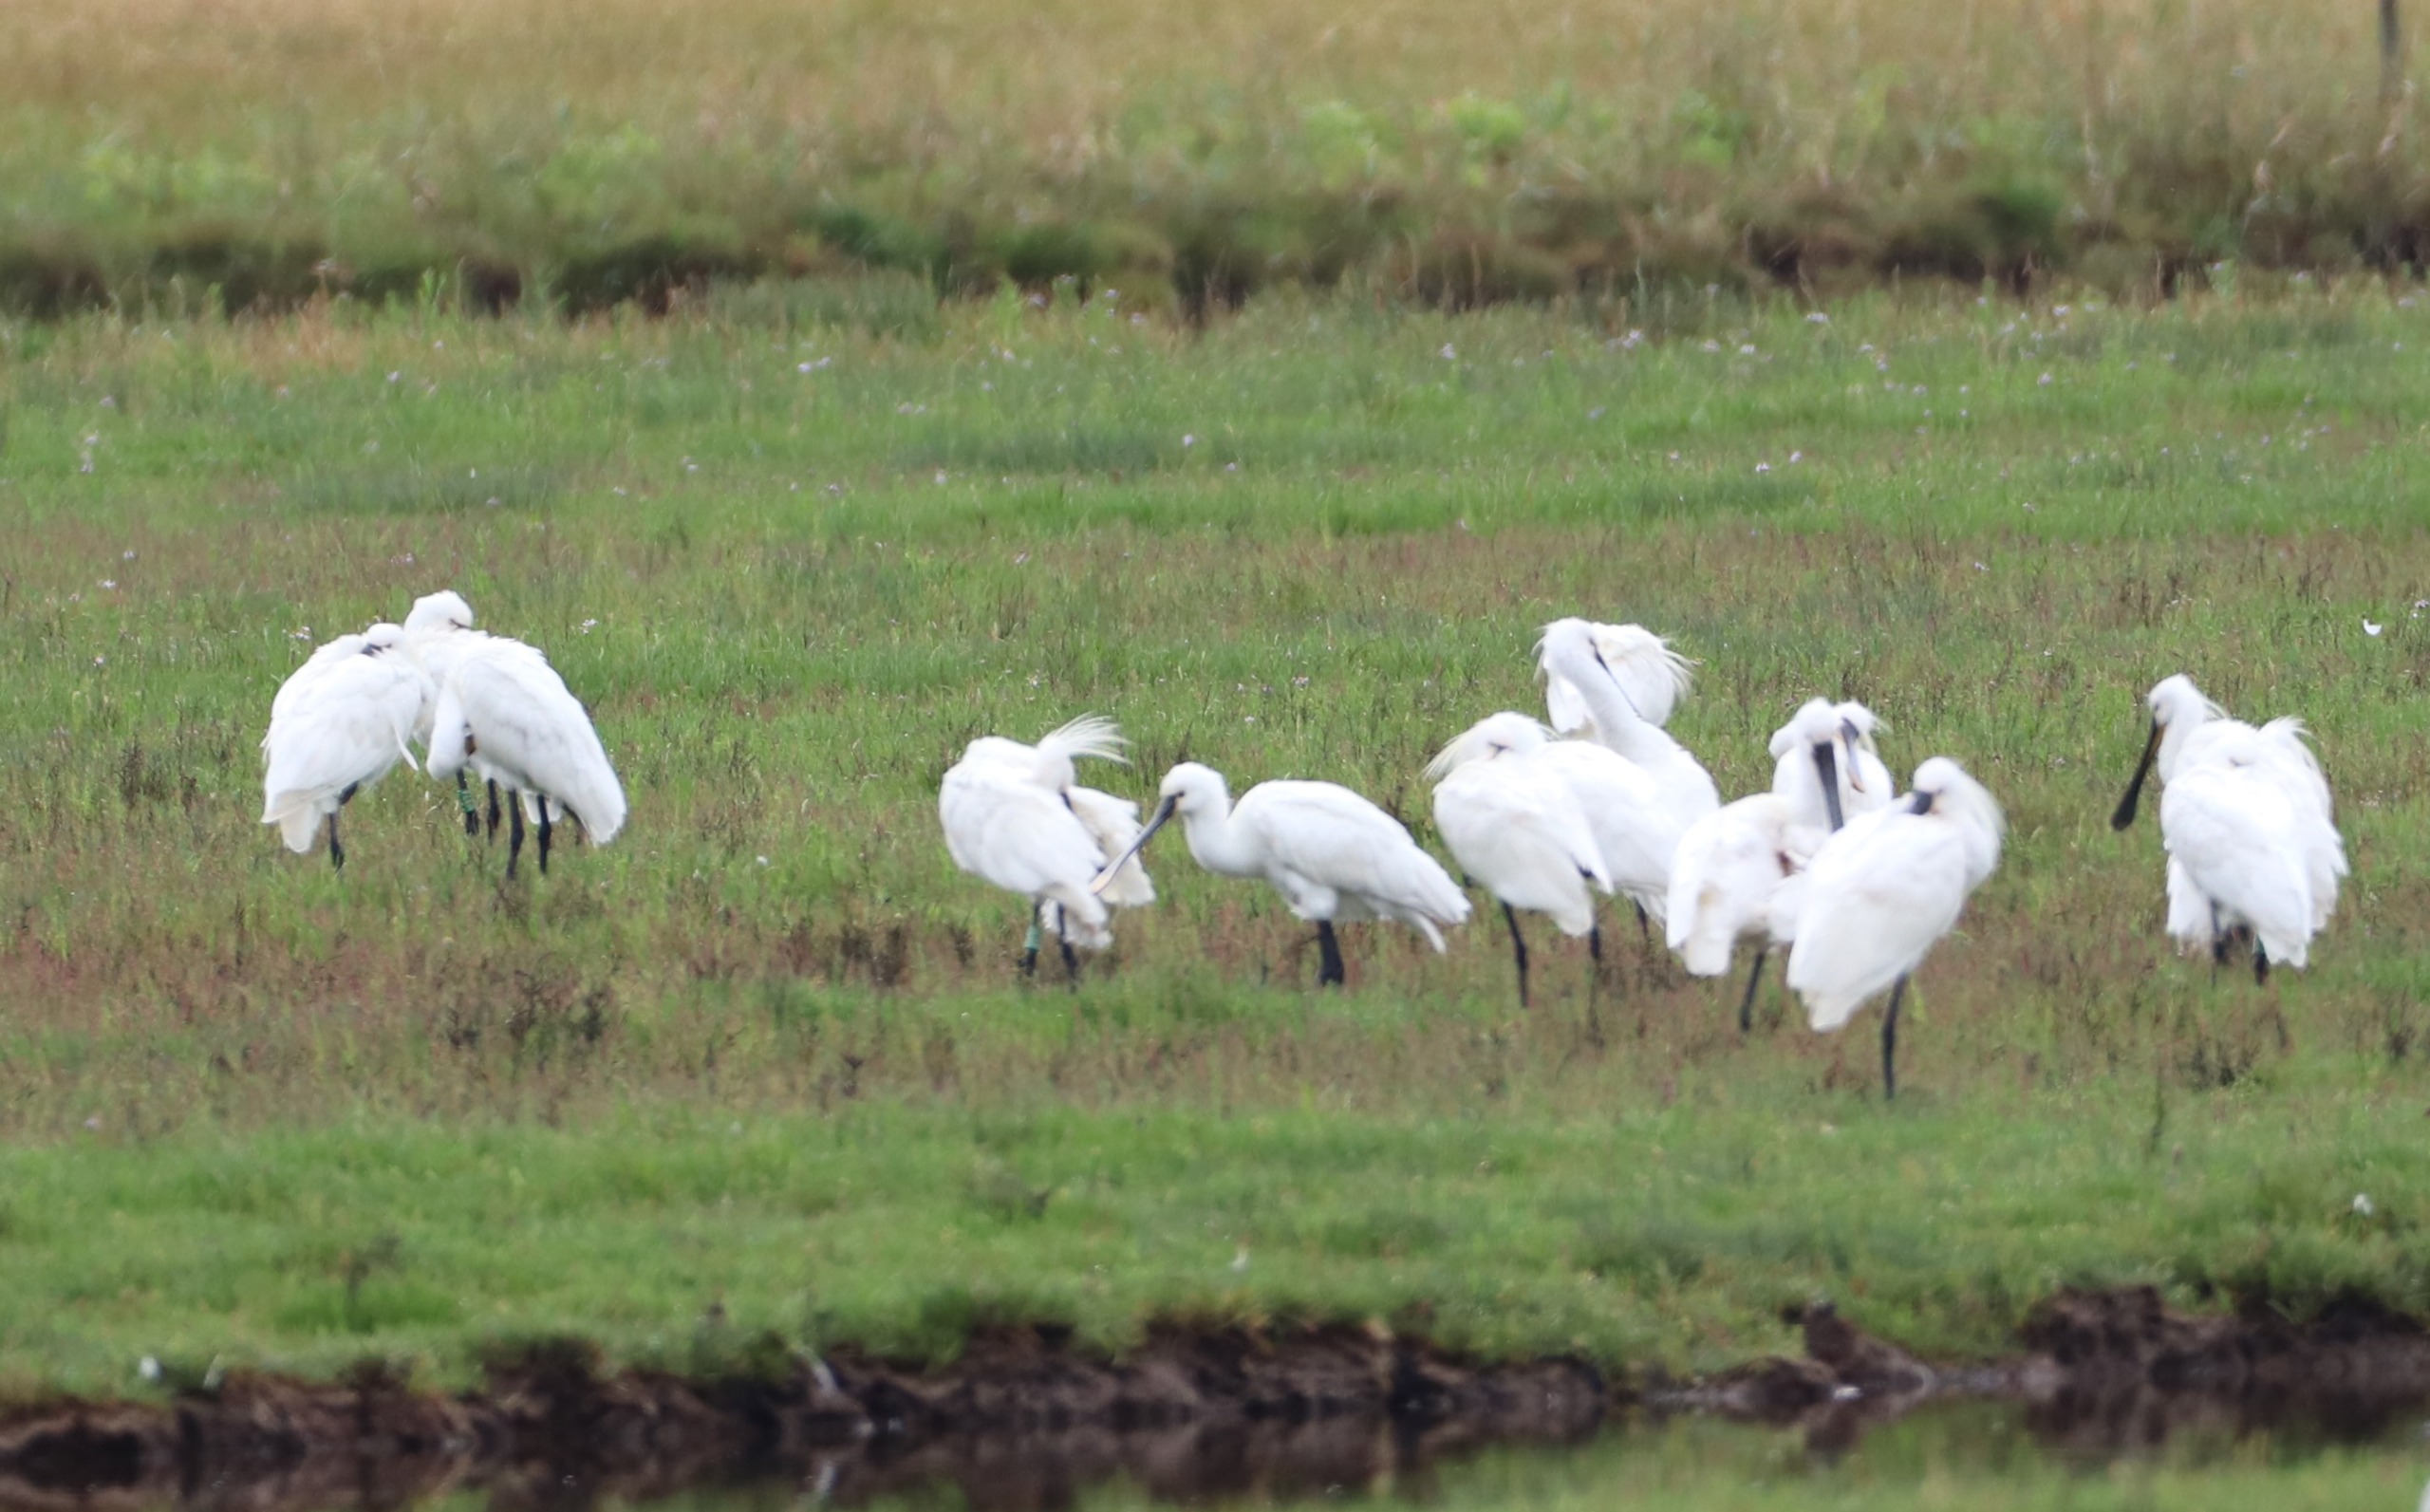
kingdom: Animalia
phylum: Chordata
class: Aves
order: Pelecaniformes
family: Threskiornithidae
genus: Platalea
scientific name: Platalea leucorodia
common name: Skestork
